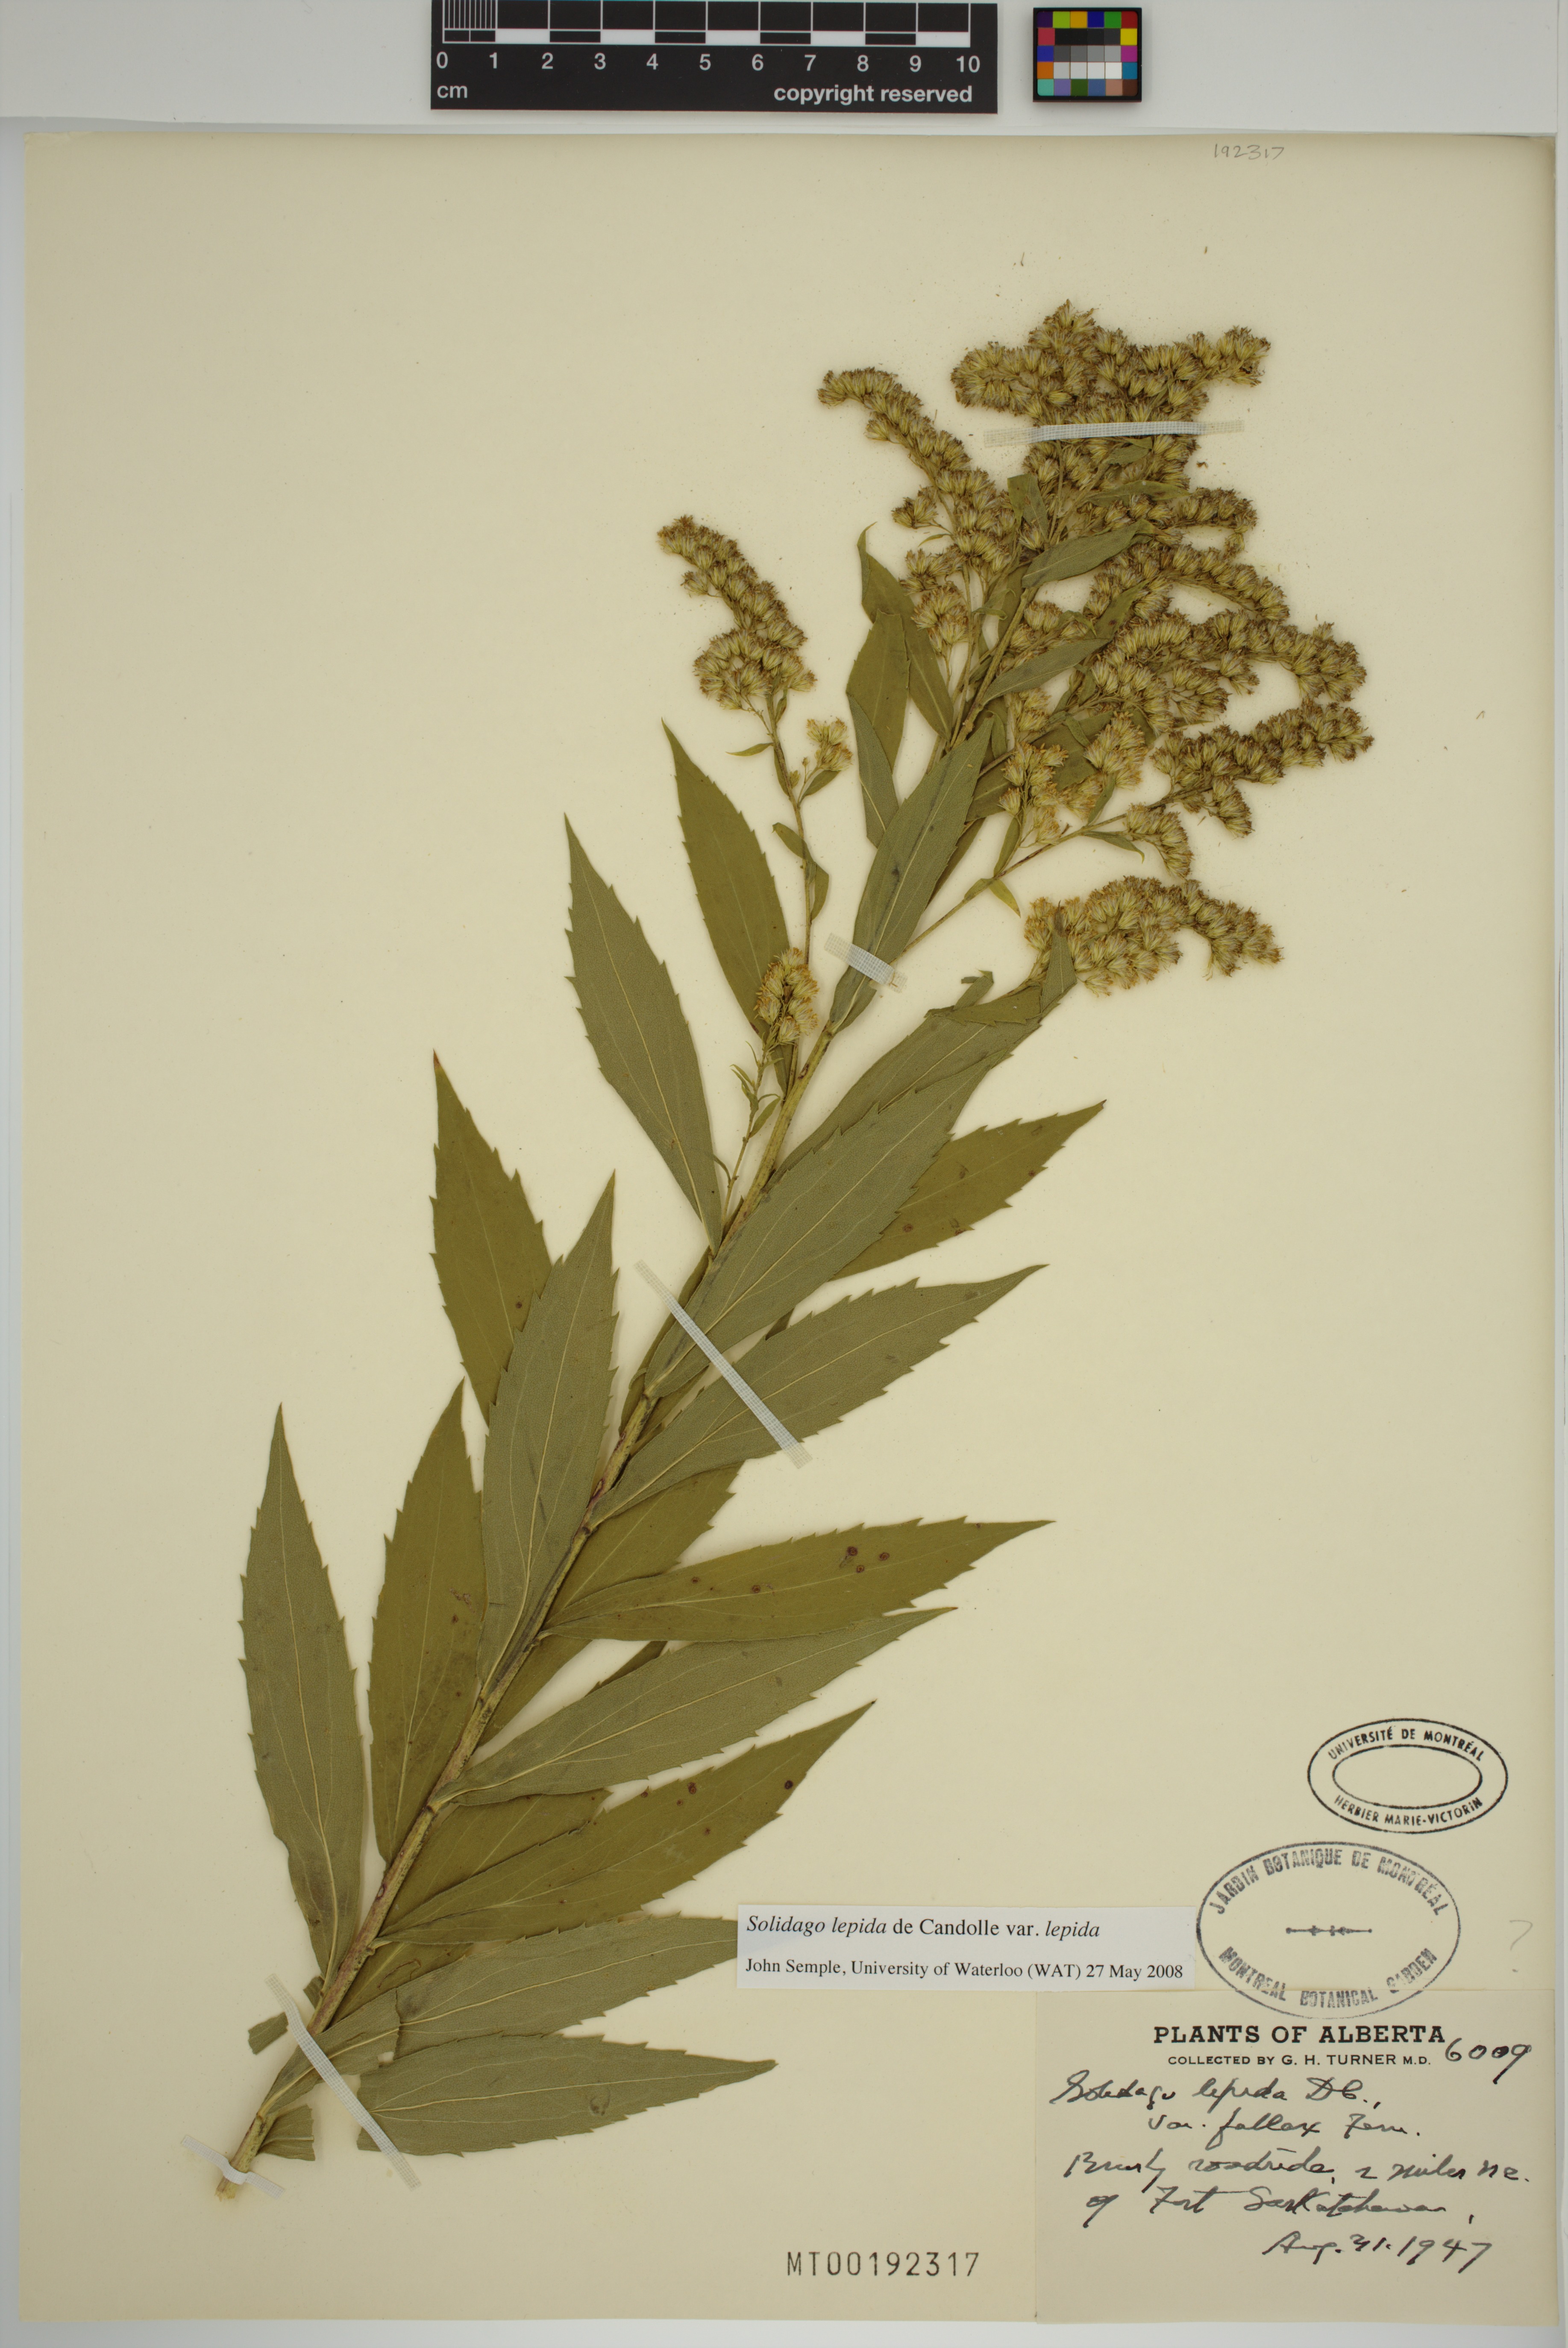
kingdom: Plantae
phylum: Tracheophyta
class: Magnoliopsida
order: Asterales
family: Asteraceae
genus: Solidago
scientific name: Solidago lepida
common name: Western canada goldenrod
